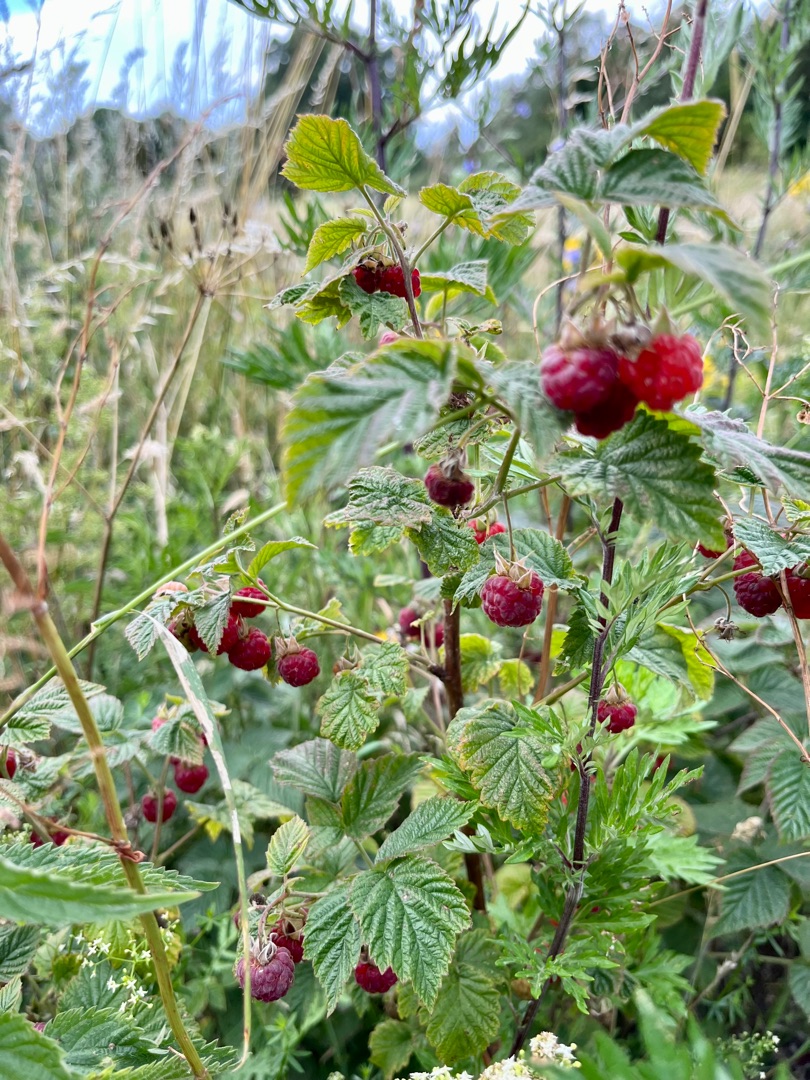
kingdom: Plantae
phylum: Tracheophyta
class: Magnoliopsida
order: Rosales
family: Rosaceae
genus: Rubus
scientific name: Rubus idaeus
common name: Hindbær
